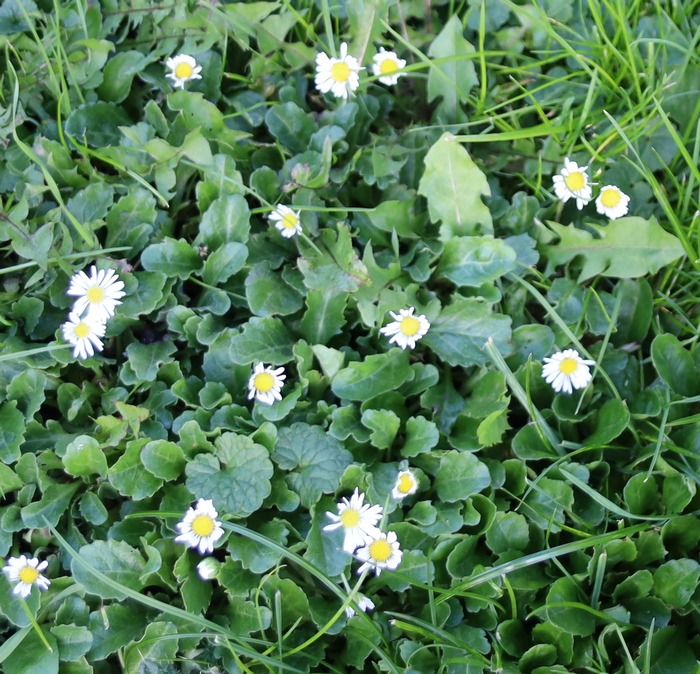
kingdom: Plantae
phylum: Tracheophyta
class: Magnoliopsida
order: Asterales
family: Asteraceae
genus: Bellis
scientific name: Bellis perennis
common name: Tusindfryd
